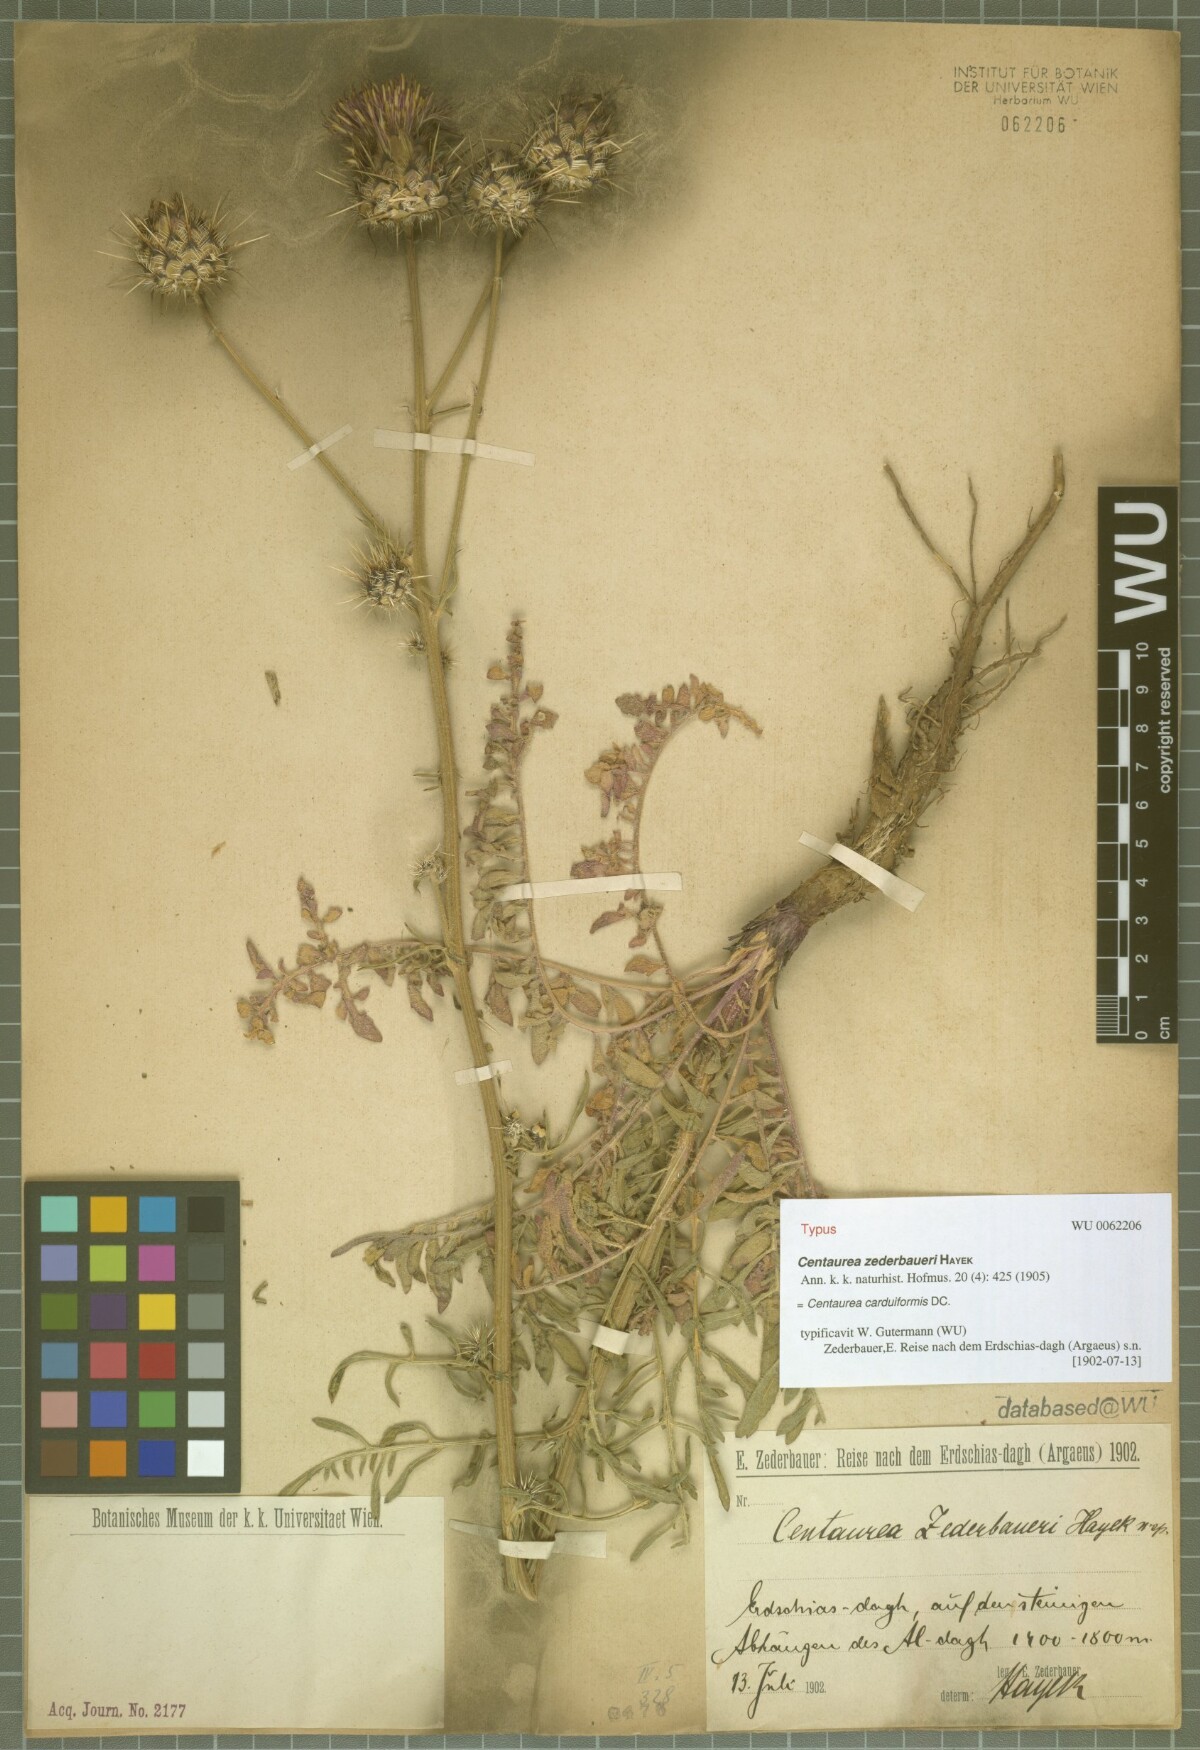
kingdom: Plantae
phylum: Tracheophyta
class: Magnoliopsida
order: Asterales
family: Asteraceae
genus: Centaurea
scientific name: Centaurea carduiformis
